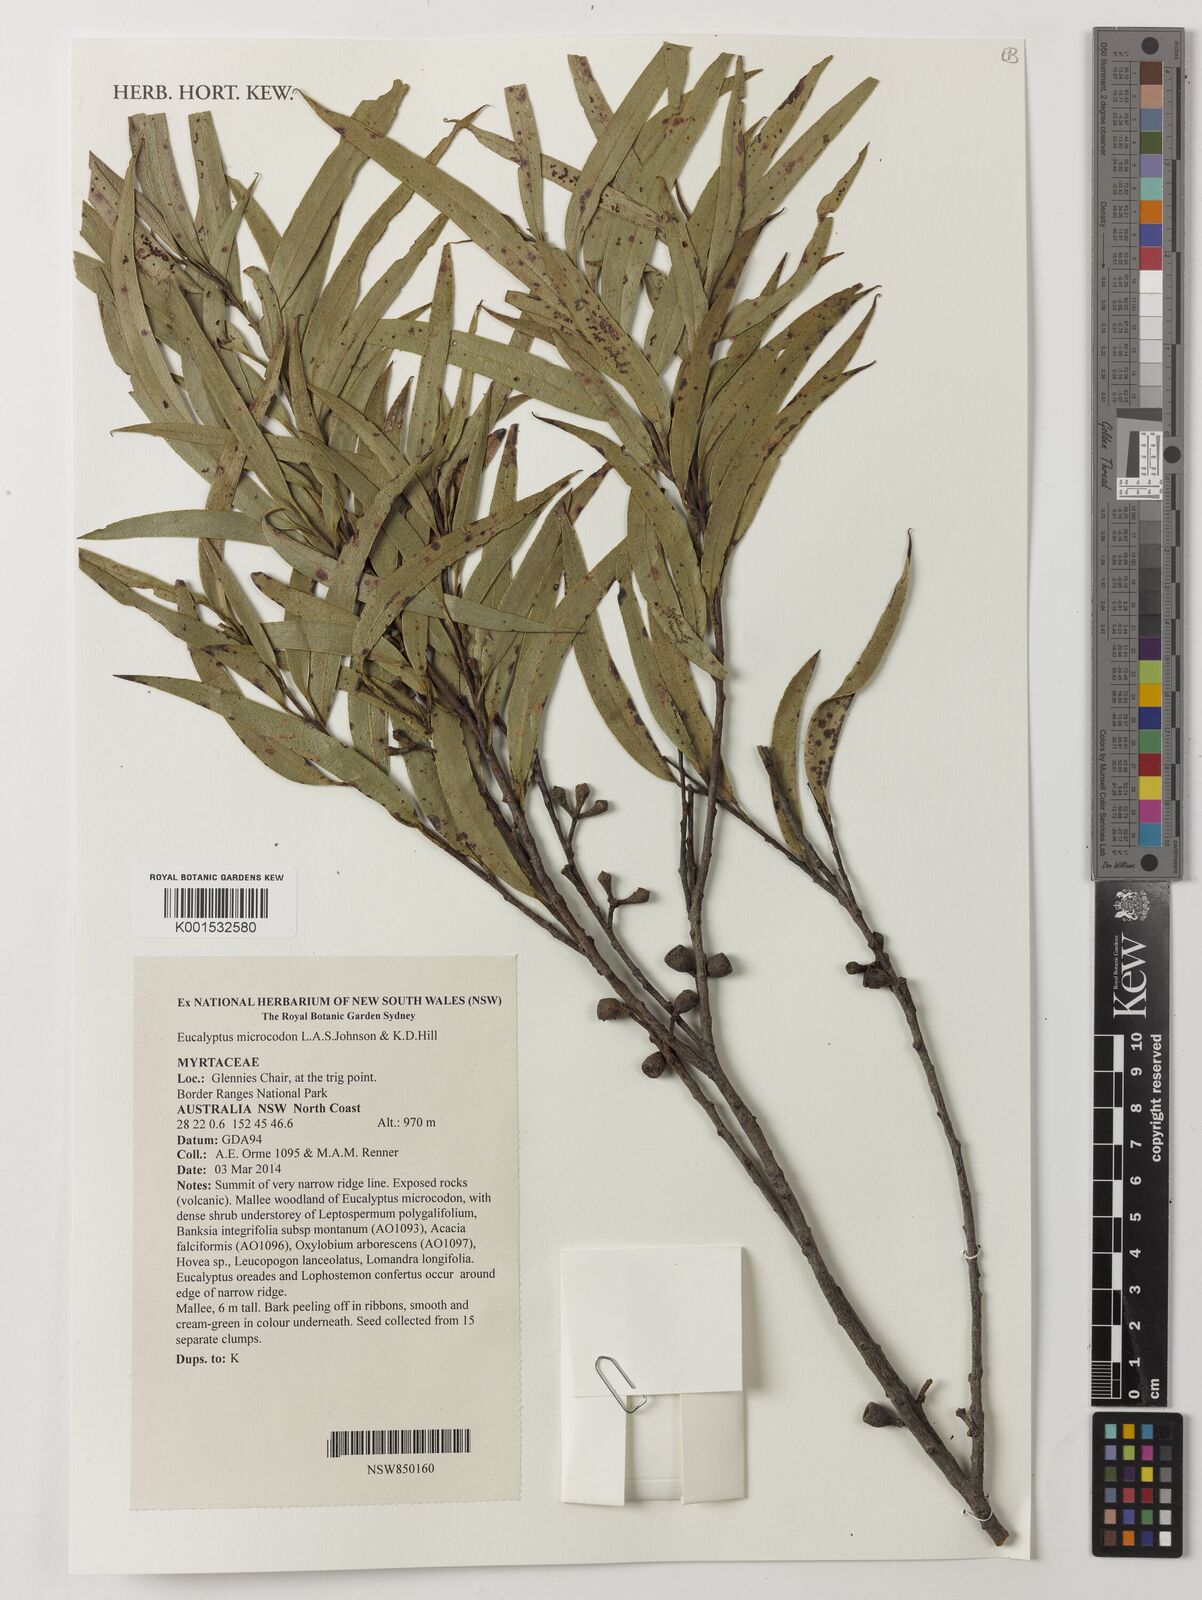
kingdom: Plantae
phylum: Tracheophyta
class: Magnoliopsida
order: Myrtales
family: Myrtaceae
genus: Eucalyptus
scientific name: Eucalyptus microcodon
